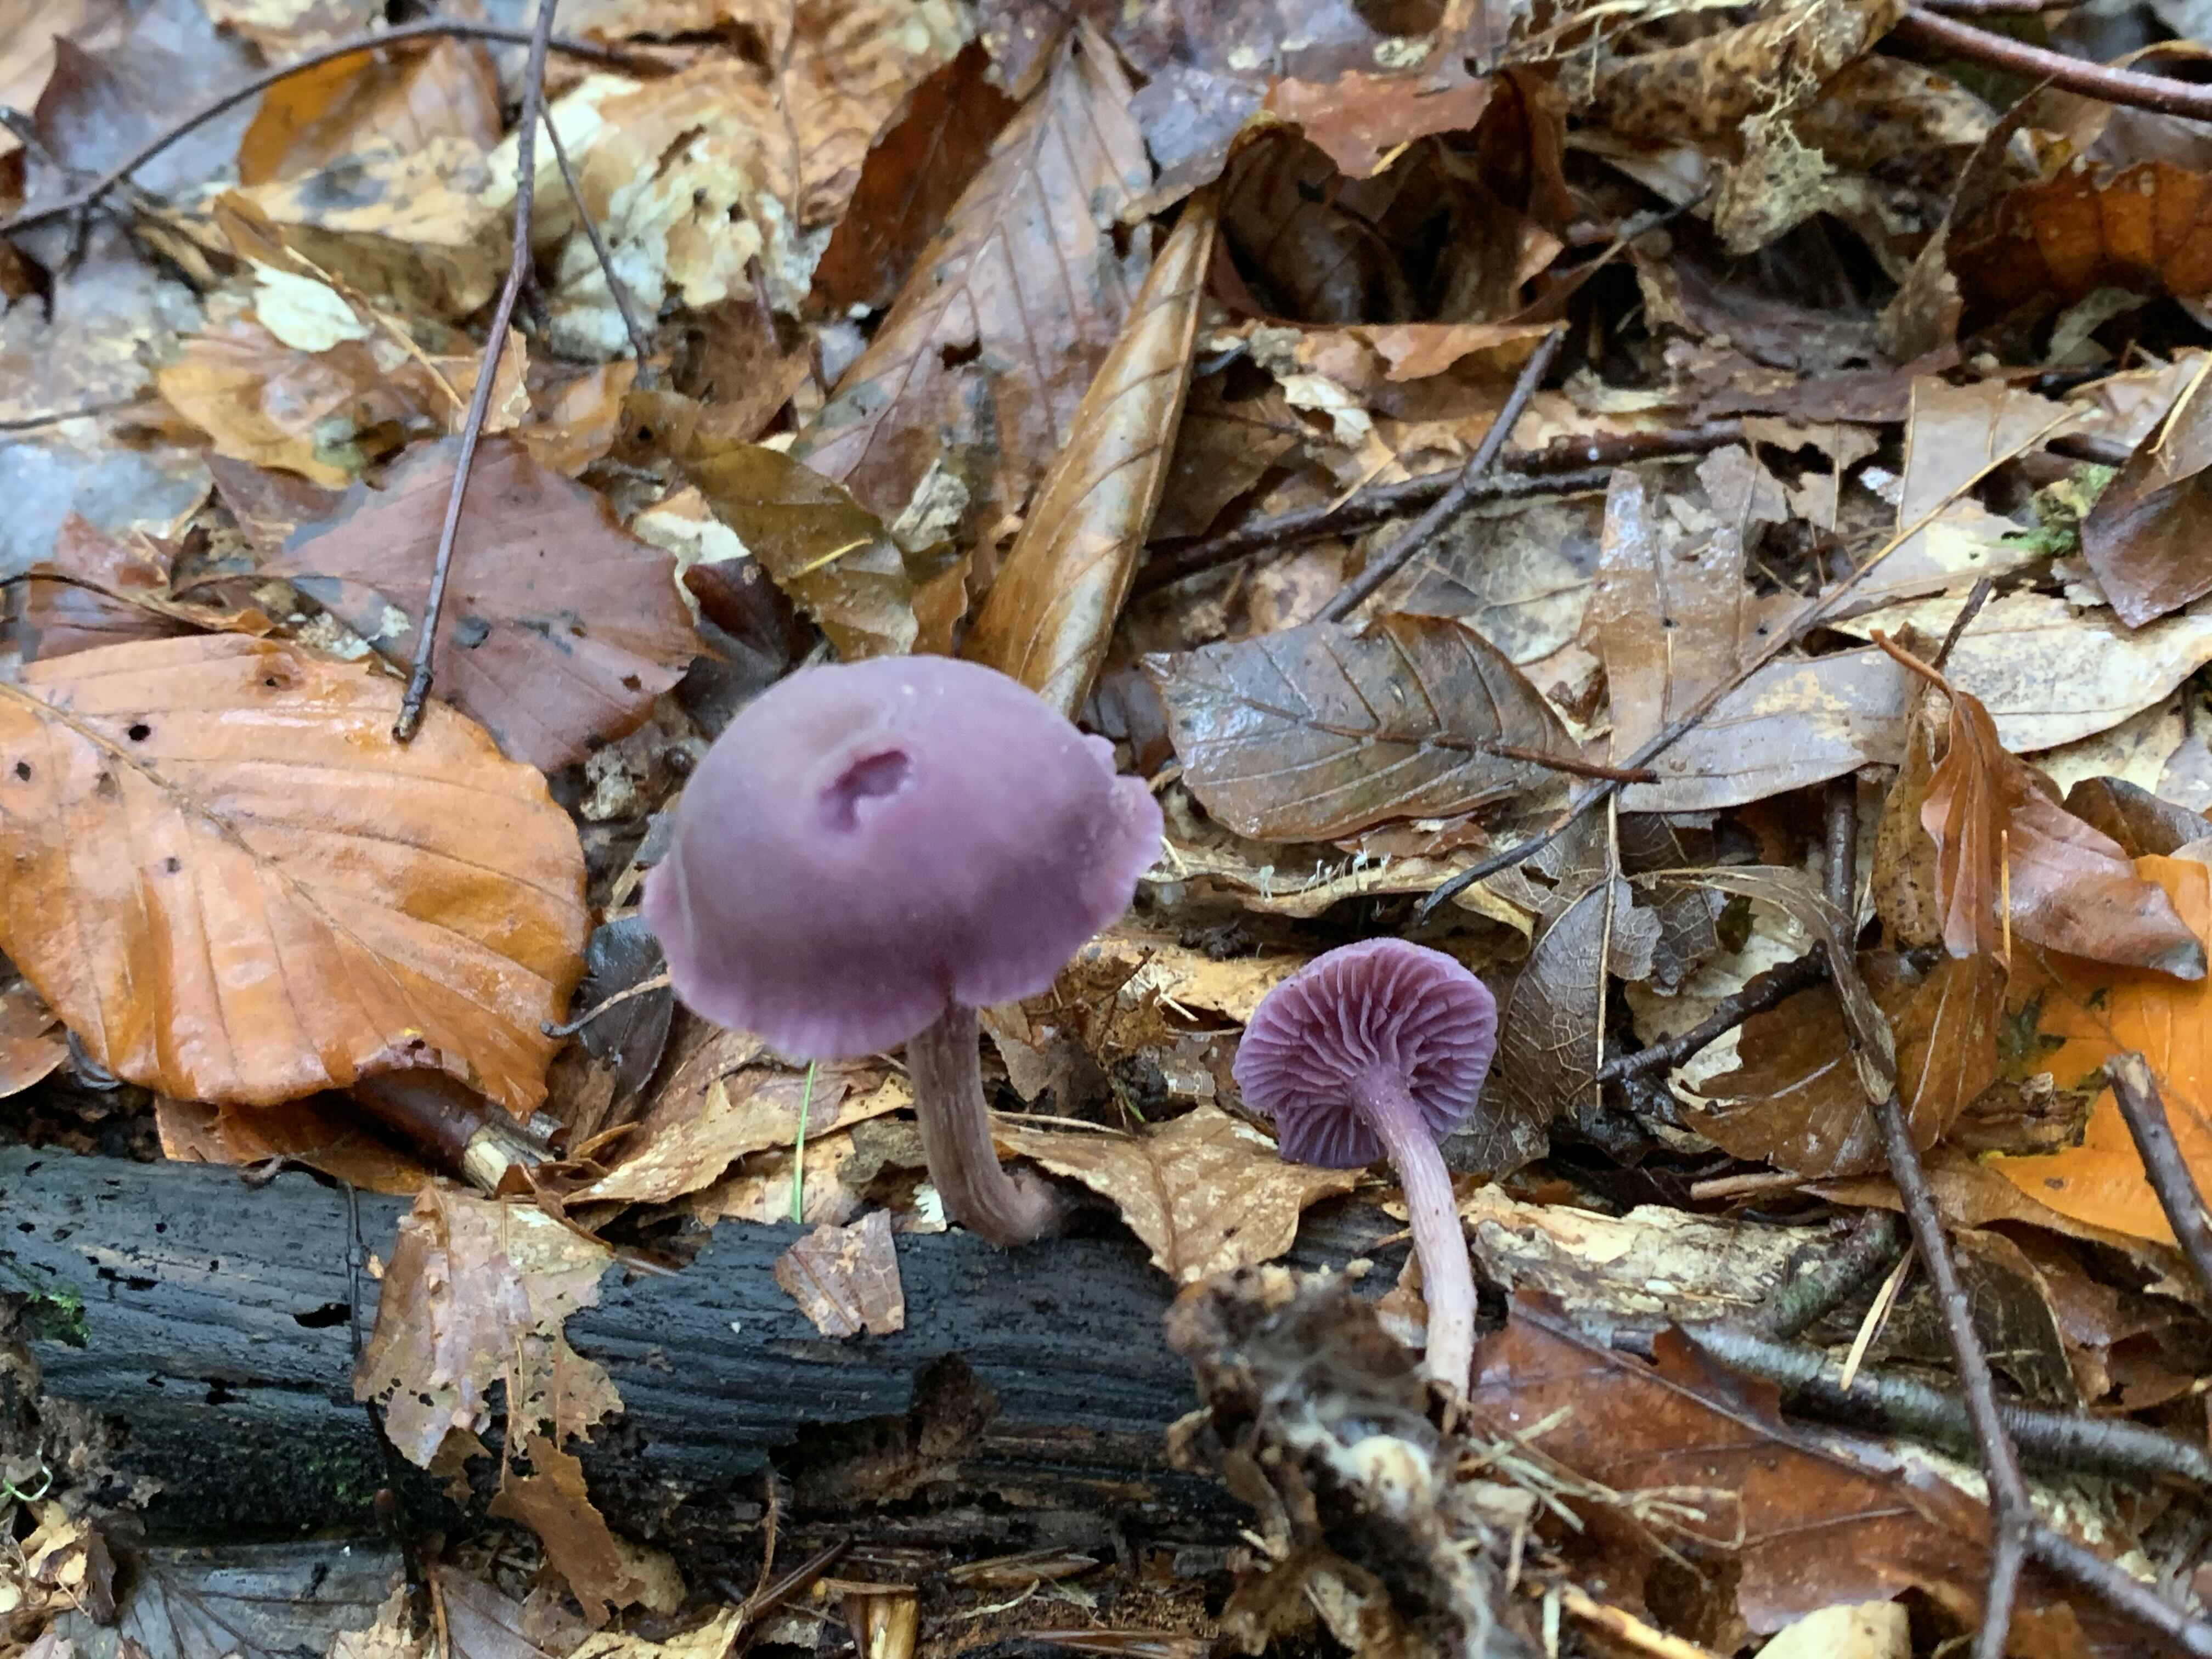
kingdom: Fungi
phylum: Basidiomycota
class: Agaricomycetes
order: Agaricales
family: Hydnangiaceae
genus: Laccaria
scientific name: Laccaria amethystina
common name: violet ametysthat
